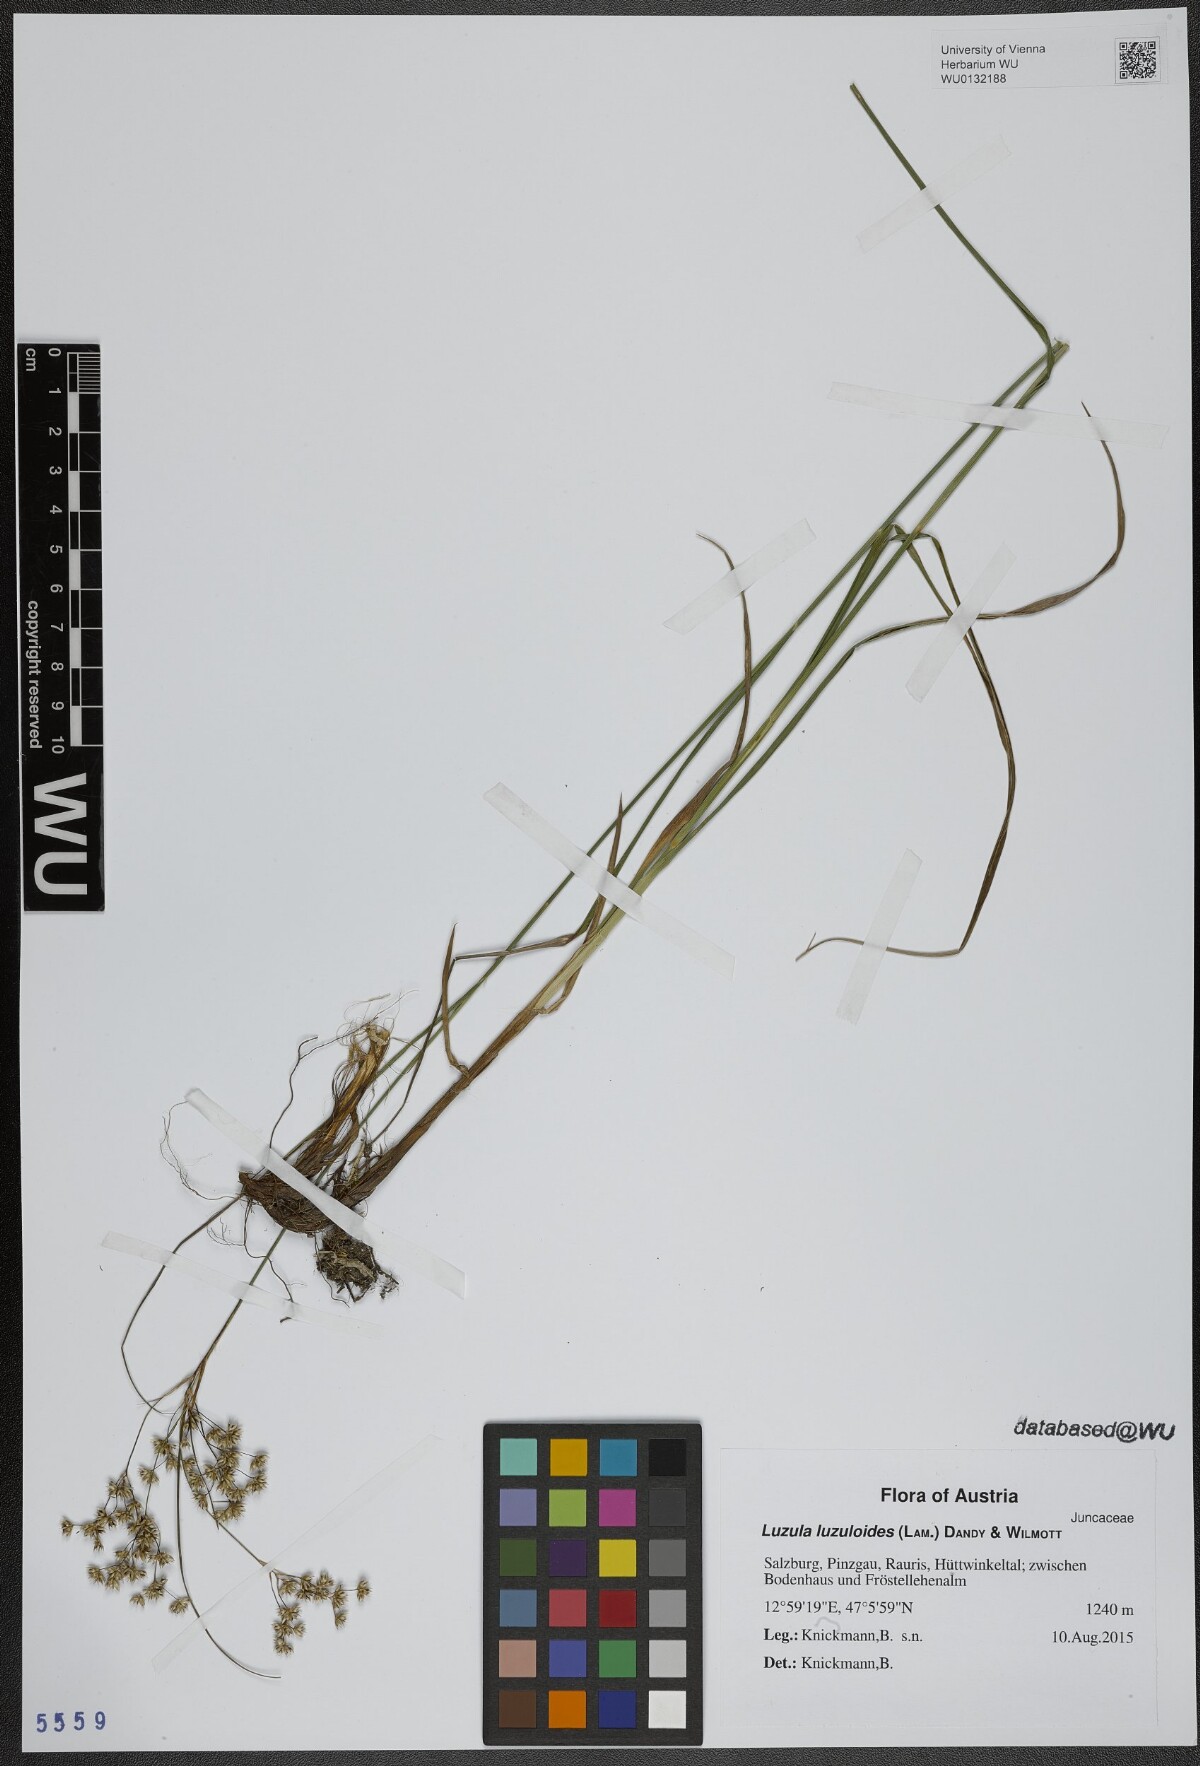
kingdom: Plantae
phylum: Tracheophyta
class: Liliopsida
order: Poales
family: Juncaceae
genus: Luzula
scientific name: Luzula luzuloides
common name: White wood-rush
